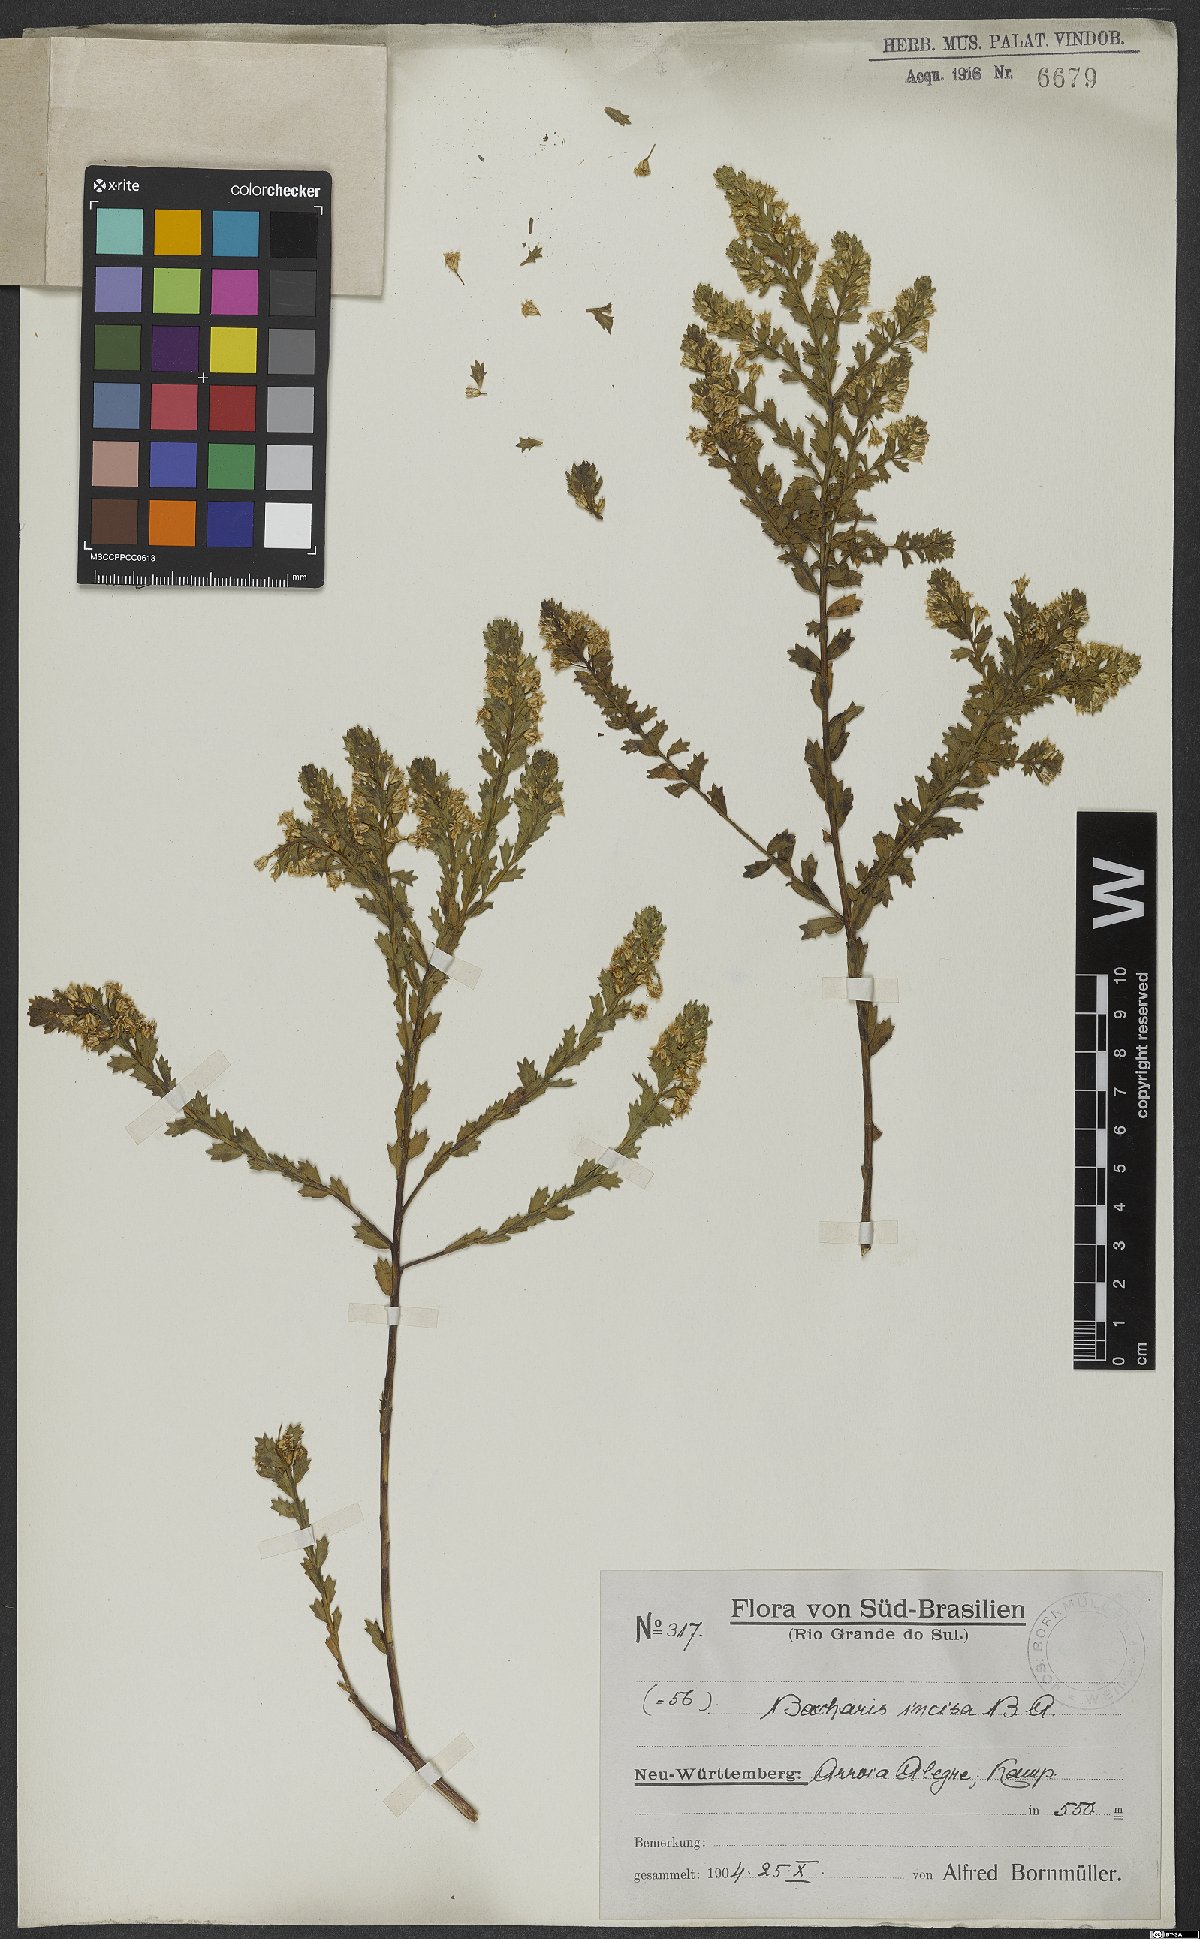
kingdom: Plantae
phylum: Tracheophyta
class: Magnoliopsida
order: Asterales
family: Asteraceae
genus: Baccharis
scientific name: Baccharis incisa
